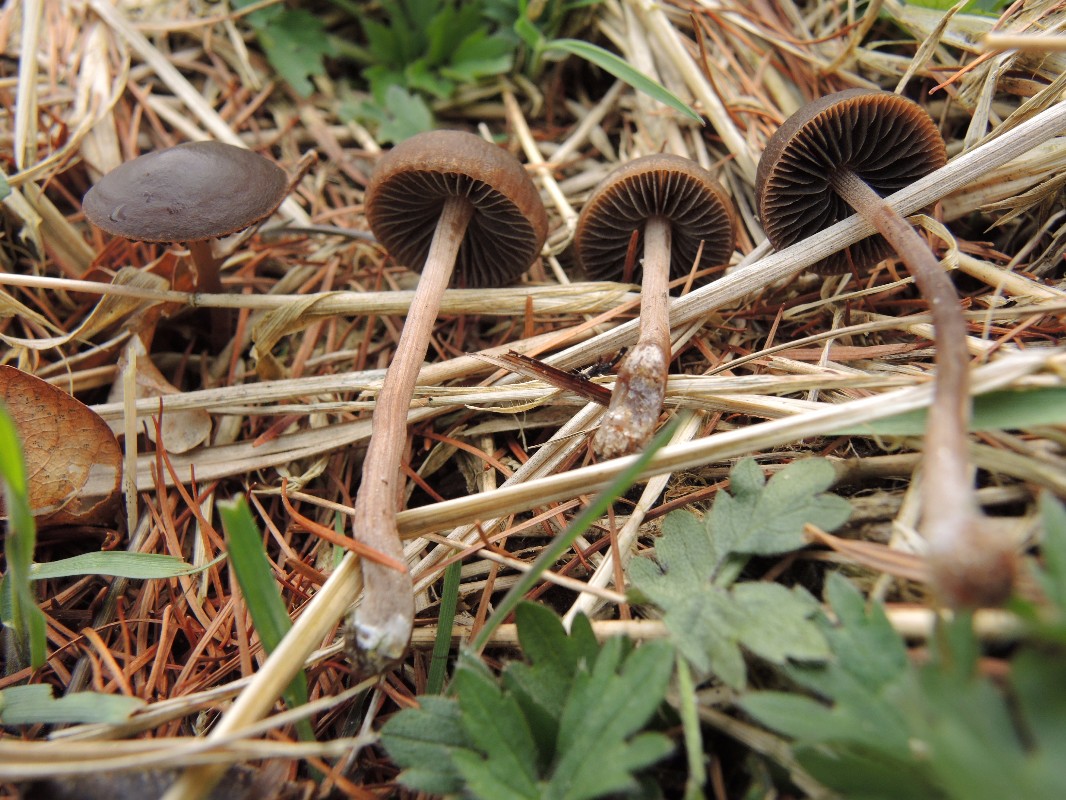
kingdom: Fungi
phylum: Basidiomycota
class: Agaricomycetes
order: Agaricales
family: Bolbitiaceae
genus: Panaeolus
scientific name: Panaeolus acuminatus
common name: høj glanshat
